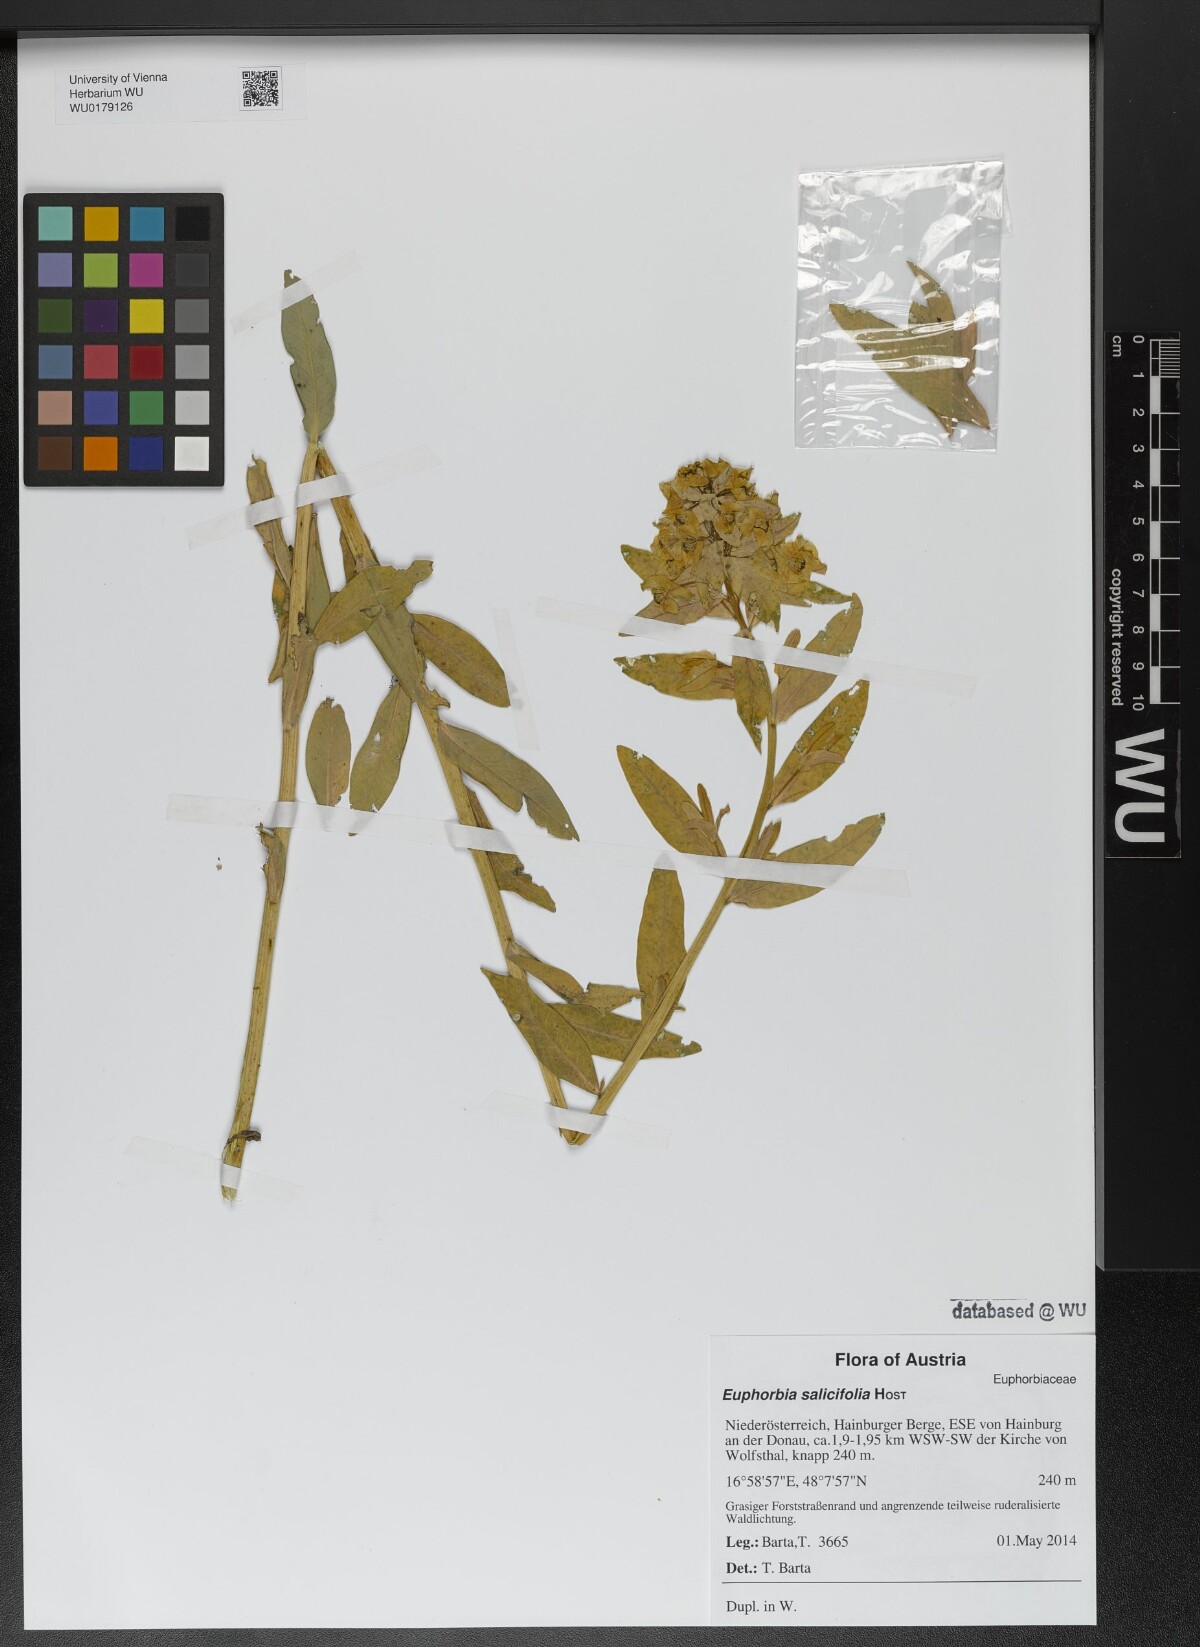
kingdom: Plantae
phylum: Tracheophyta
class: Magnoliopsida
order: Malpighiales
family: Euphorbiaceae
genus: Euphorbia
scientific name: Euphorbia salicifolia
